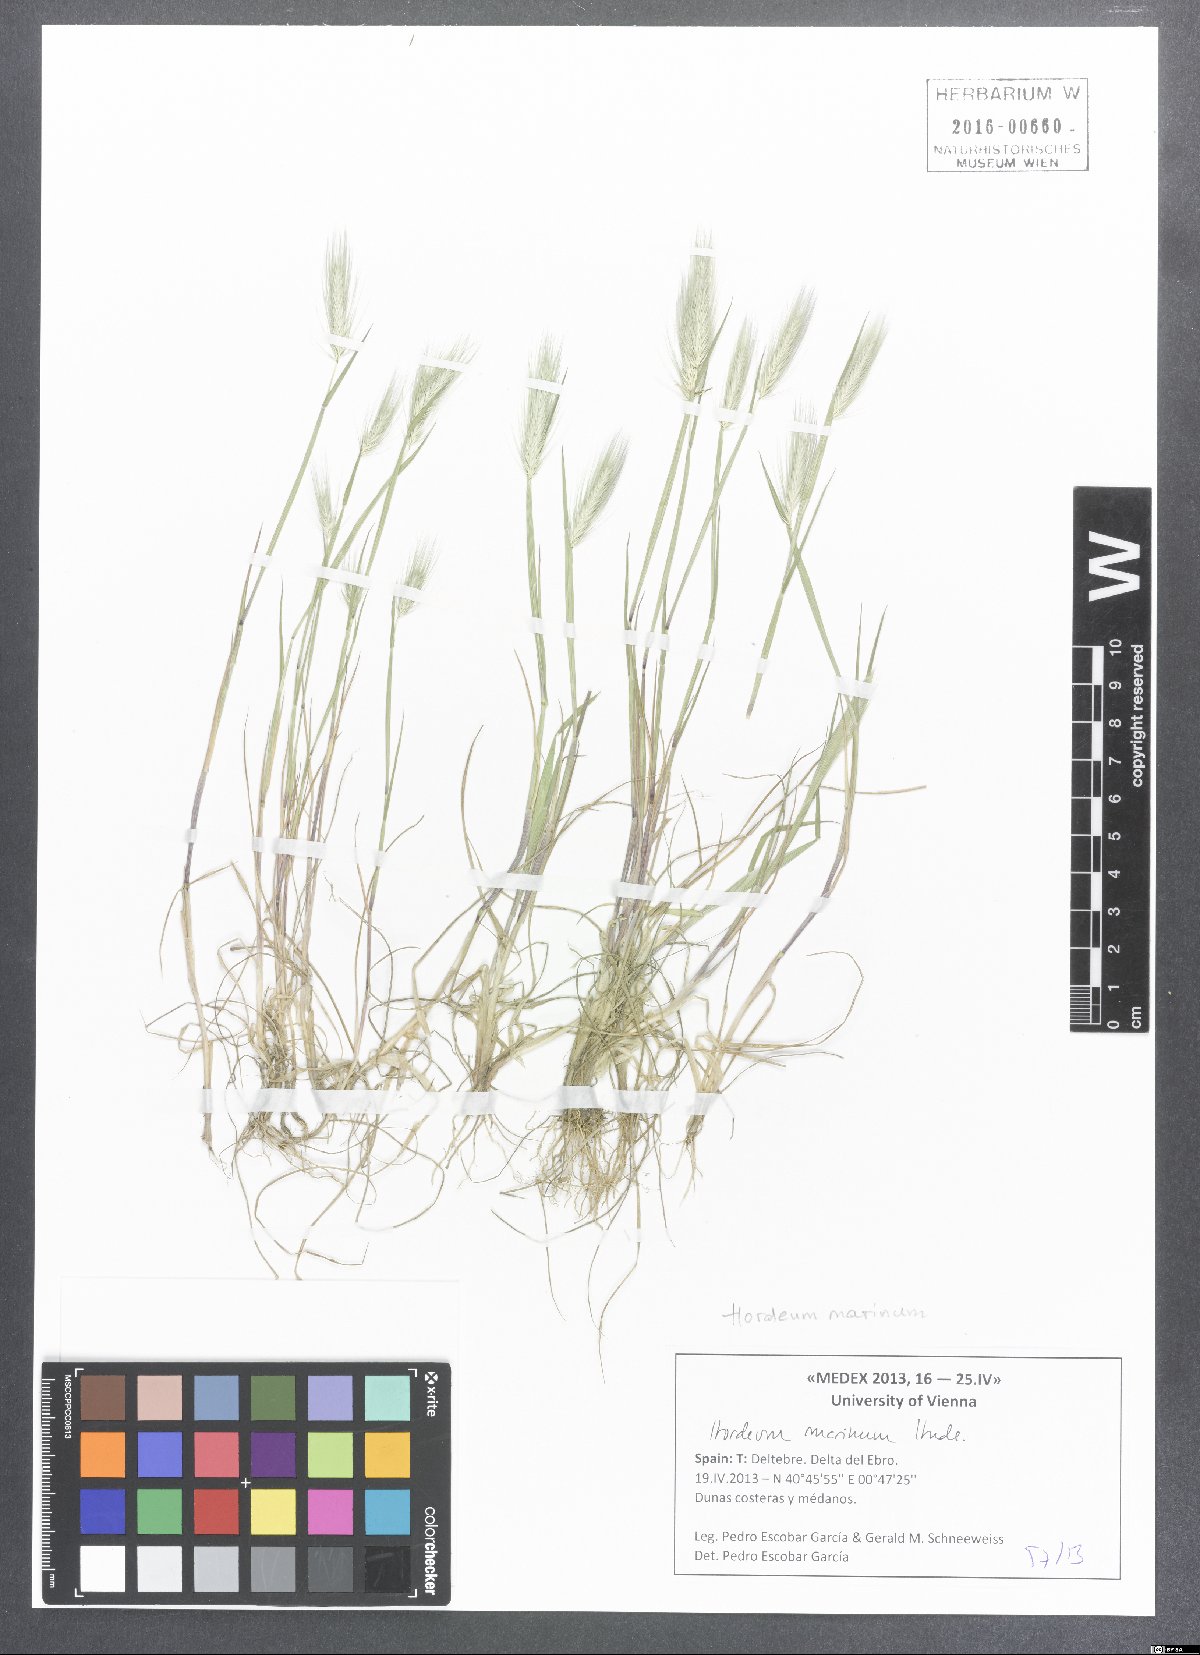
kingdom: Plantae
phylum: Tracheophyta
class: Liliopsida
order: Poales
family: Poaceae
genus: Hordeum
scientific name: Hordeum marinum
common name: Sea barley
